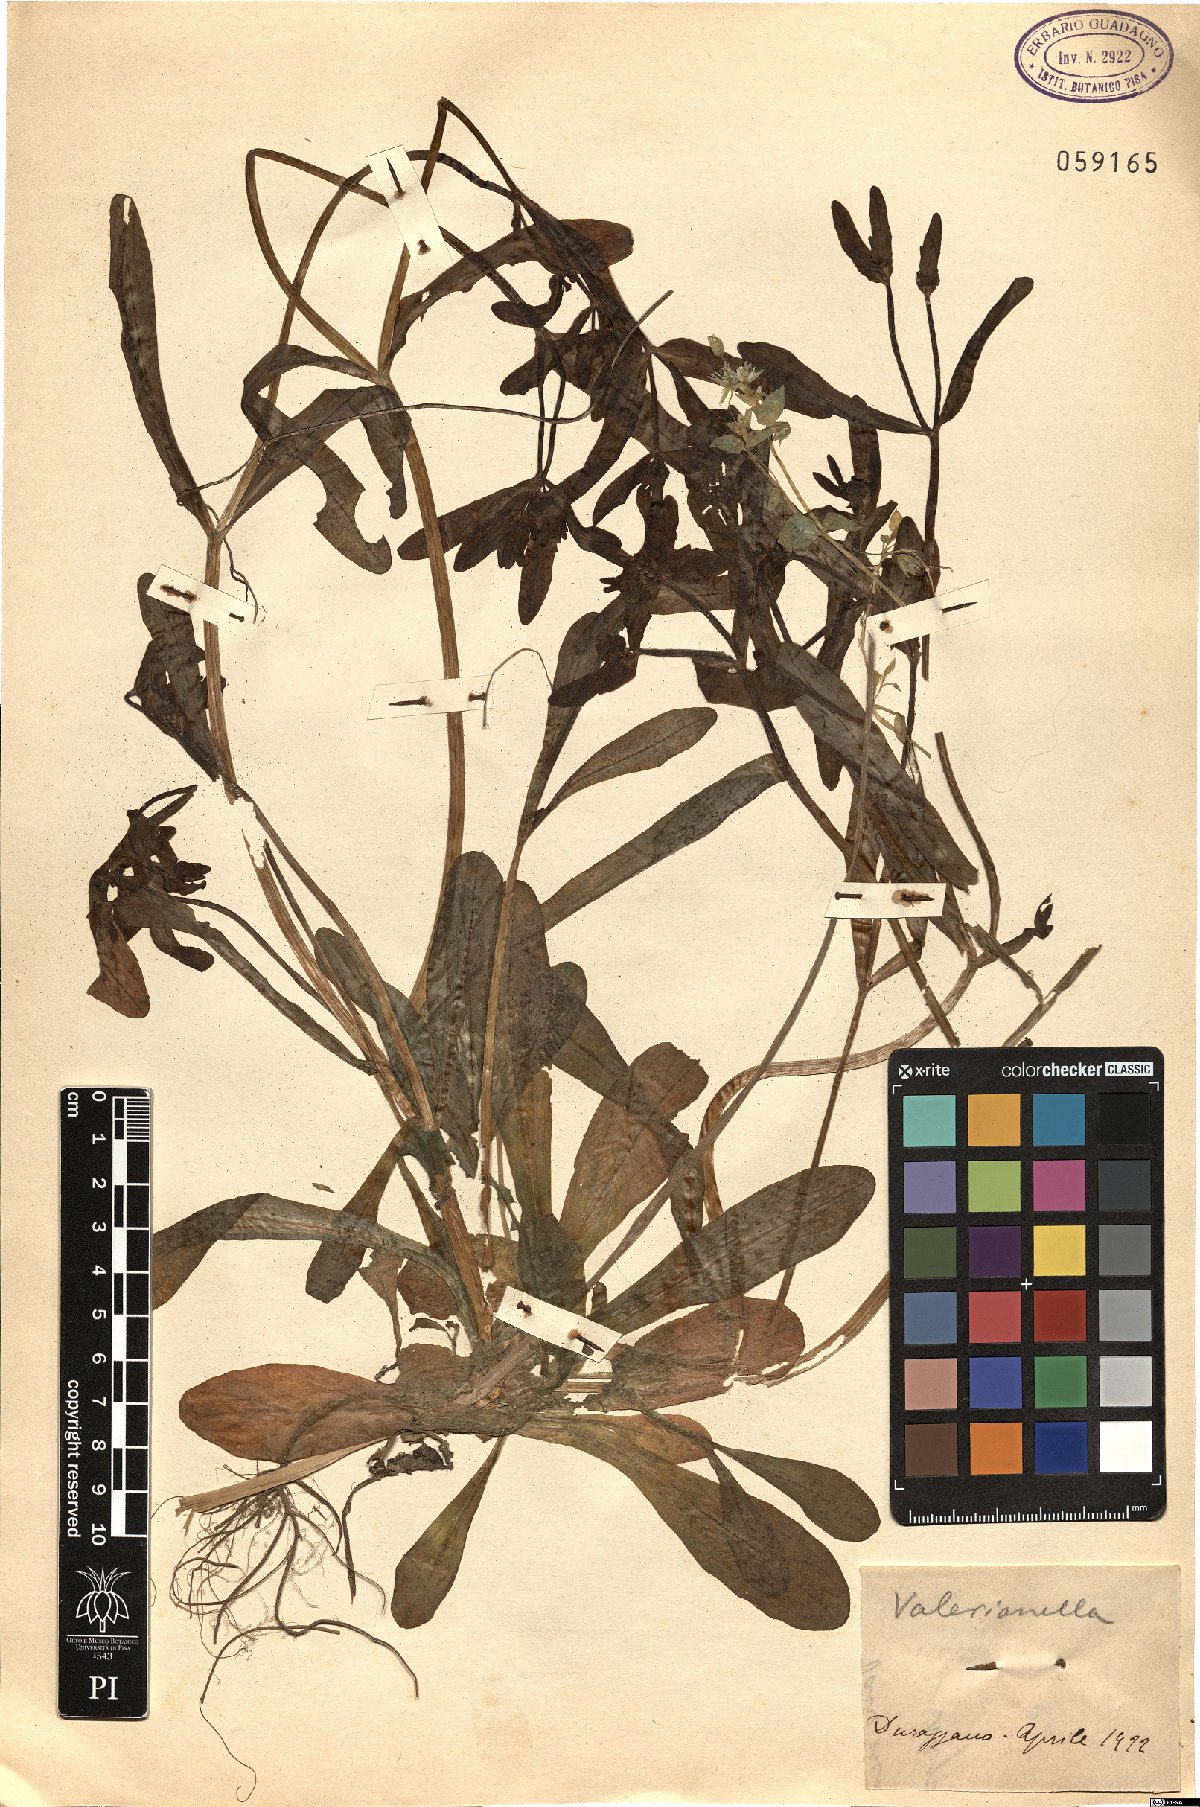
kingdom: Plantae
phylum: Tracheophyta
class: Magnoliopsida
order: Dipsacales
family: Caprifoliaceae
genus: Valerianella
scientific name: Valerianella
